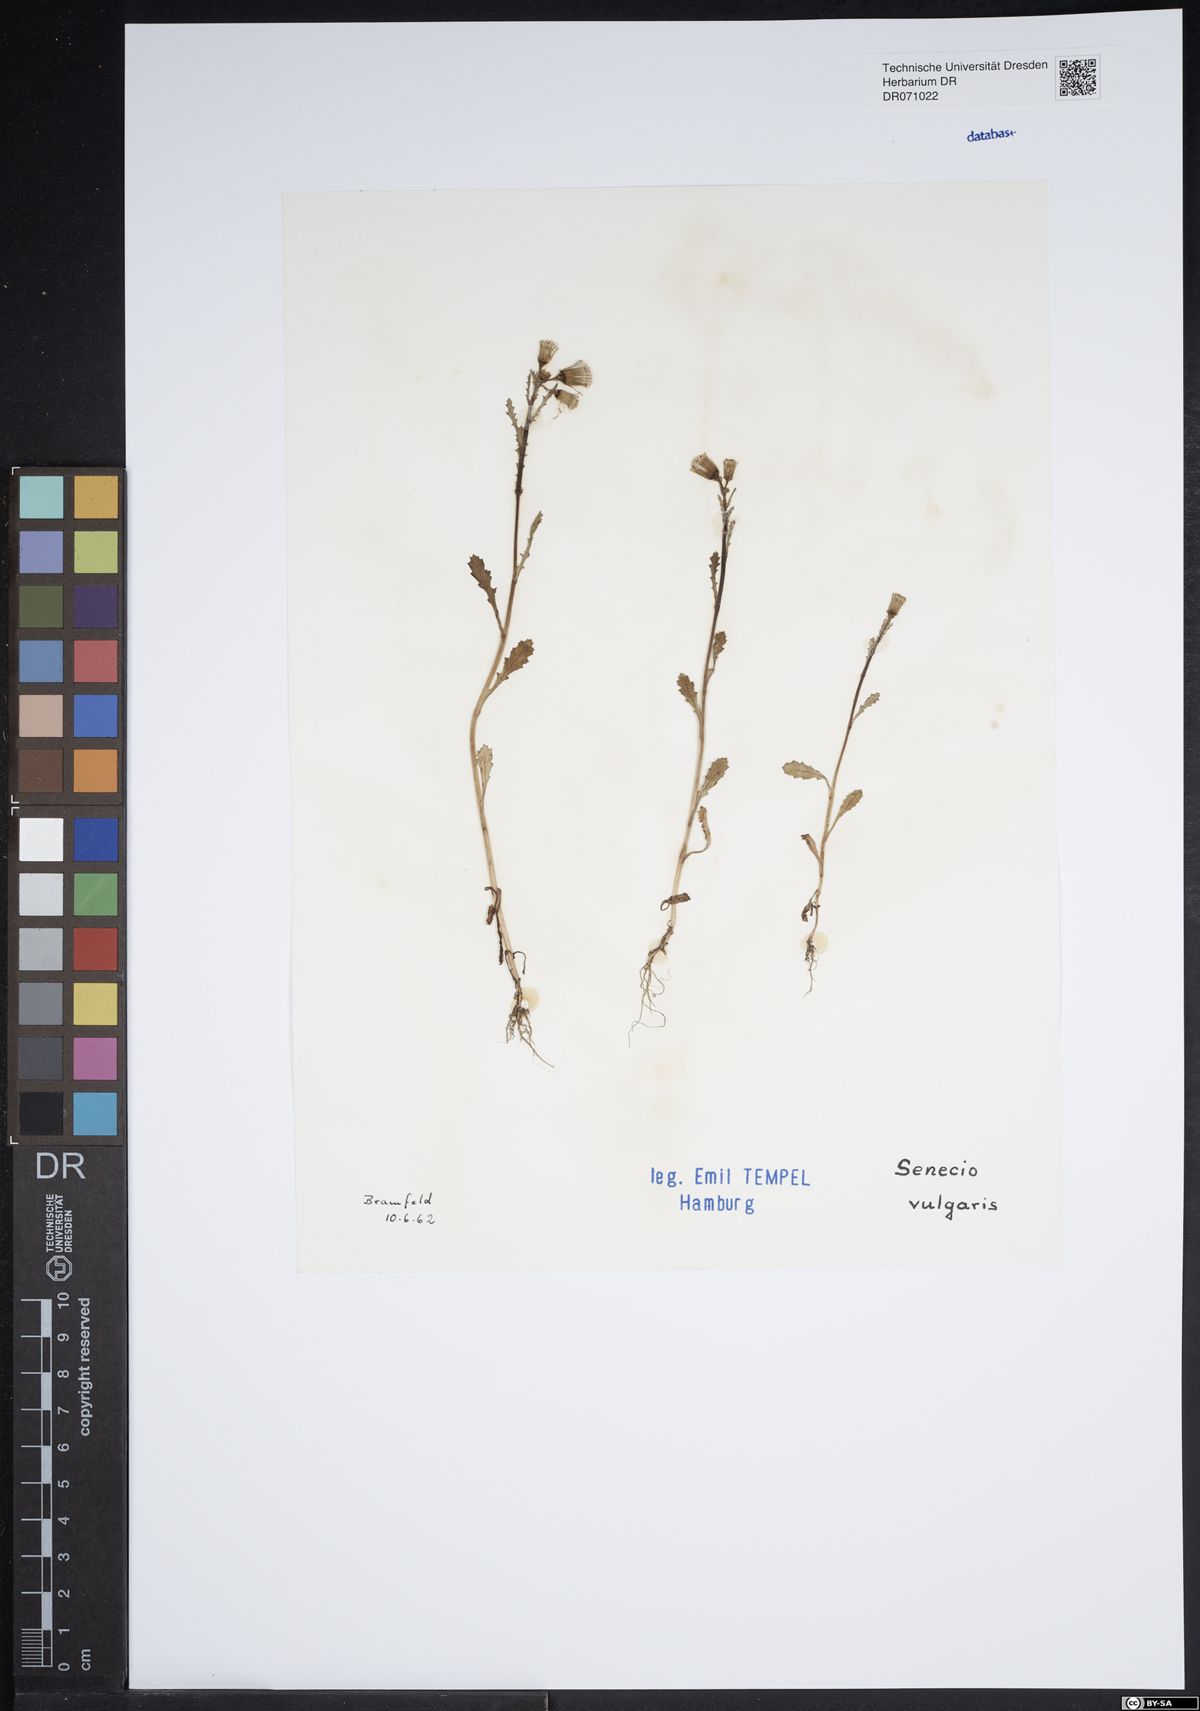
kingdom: Plantae
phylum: Tracheophyta
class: Magnoliopsida
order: Asterales
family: Asteraceae
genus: Senecio
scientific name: Senecio vulgaris
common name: Old-man-in-the-spring
